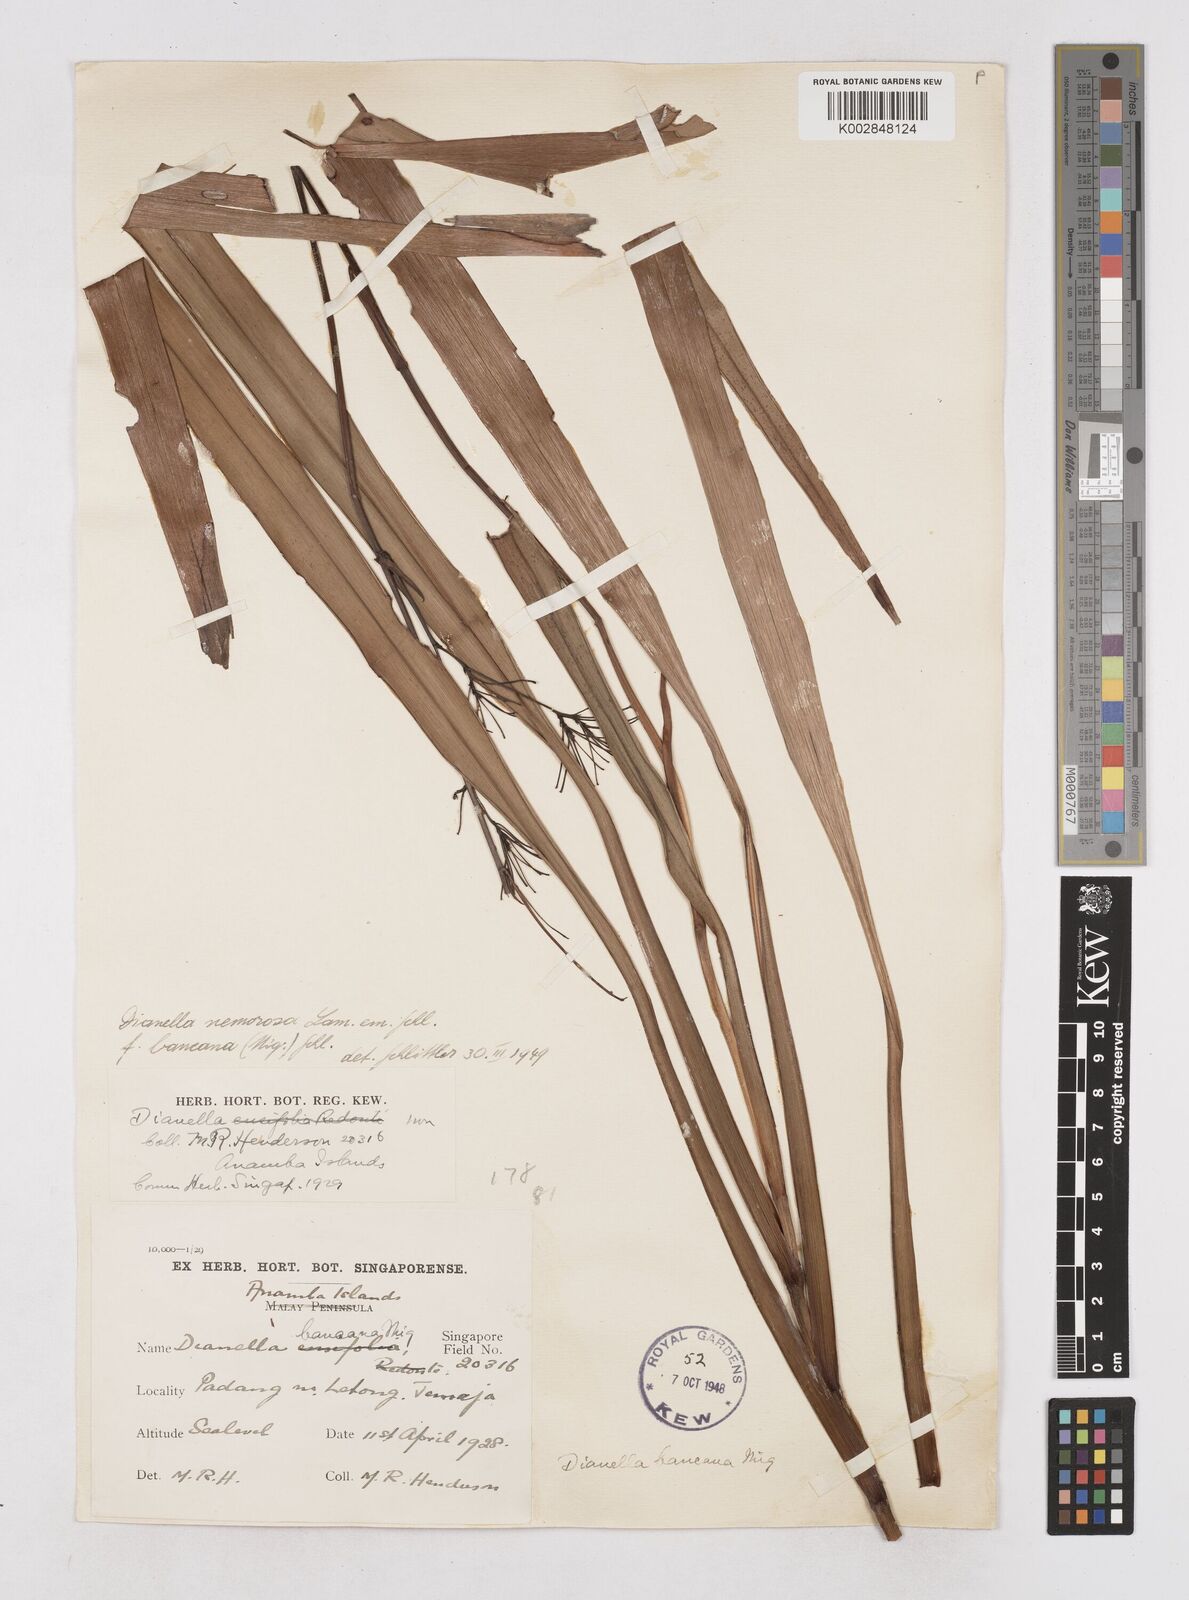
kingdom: Plantae
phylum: Tracheophyta
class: Liliopsida
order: Asparagales
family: Asphodelaceae
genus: Dianella
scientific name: Dianella ensifolia
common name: New zealand lilyplant
